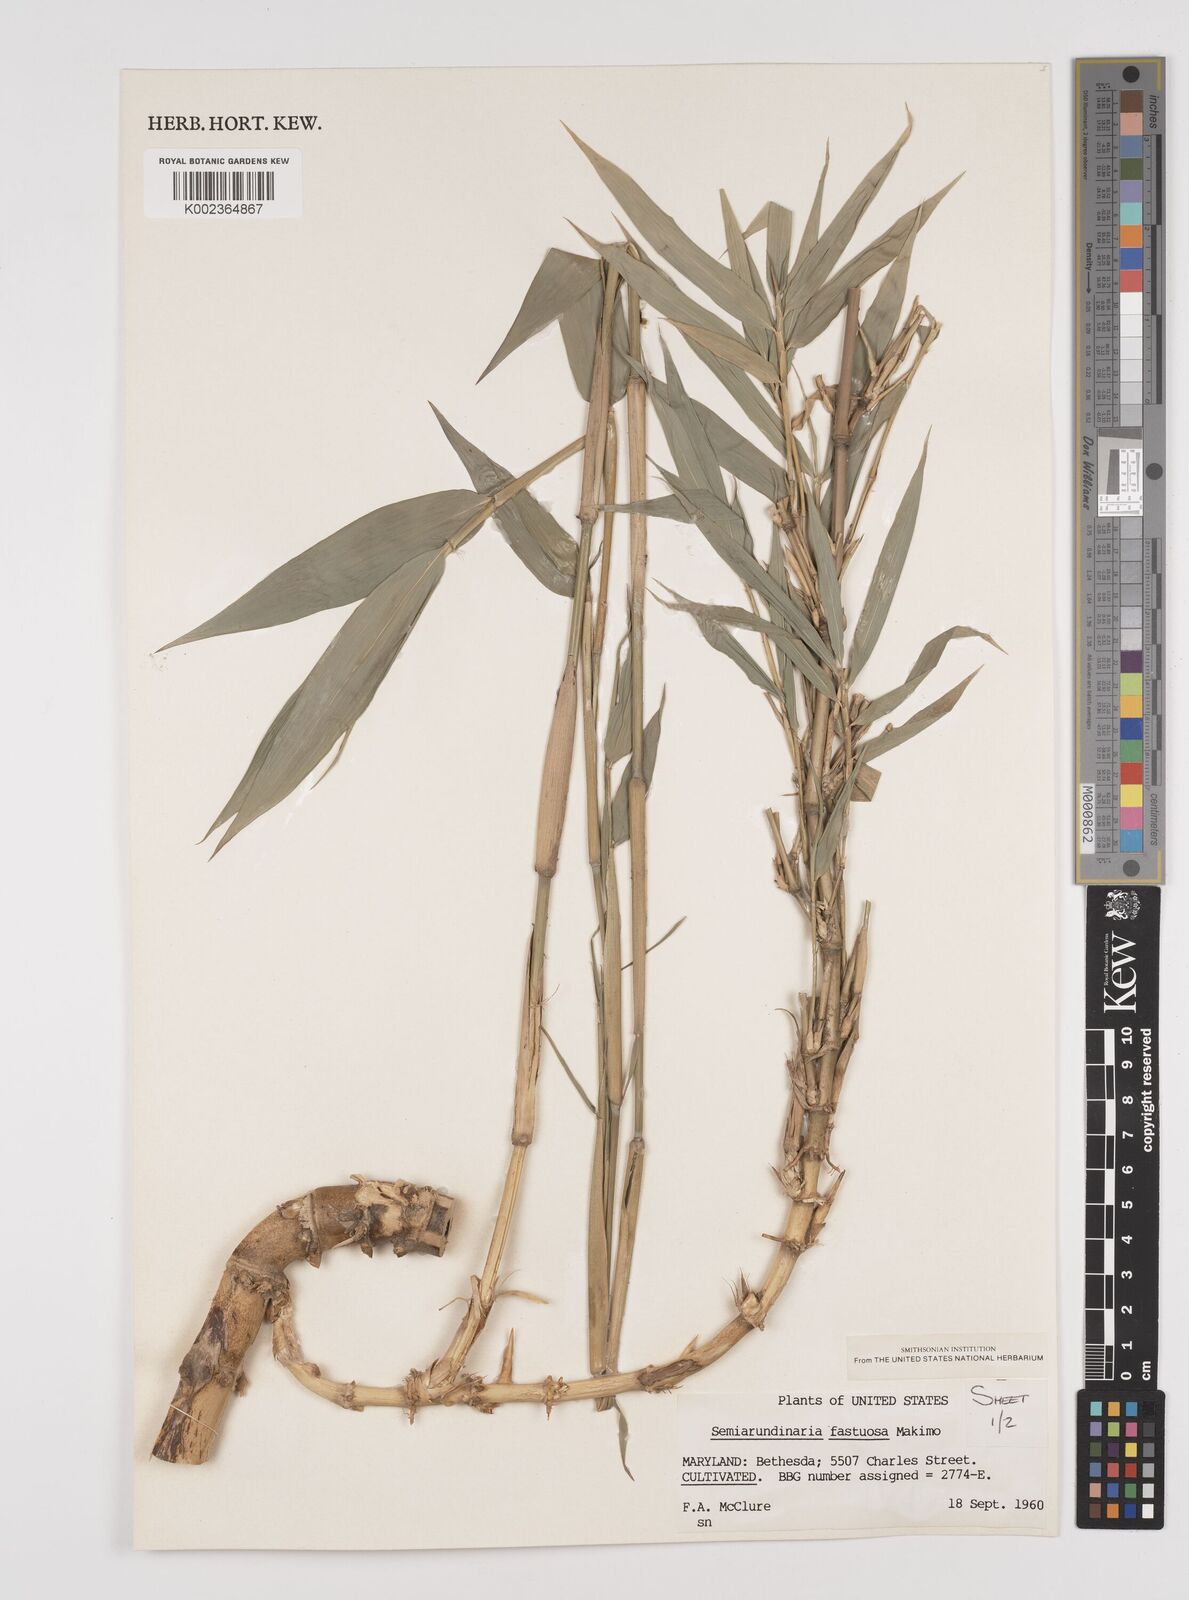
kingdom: Plantae
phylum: Tracheophyta
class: Liliopsida
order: Poales
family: Poaceae
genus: Semiarundinaria
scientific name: Semiarundinaria fastuosa
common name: Narihira bamboo
